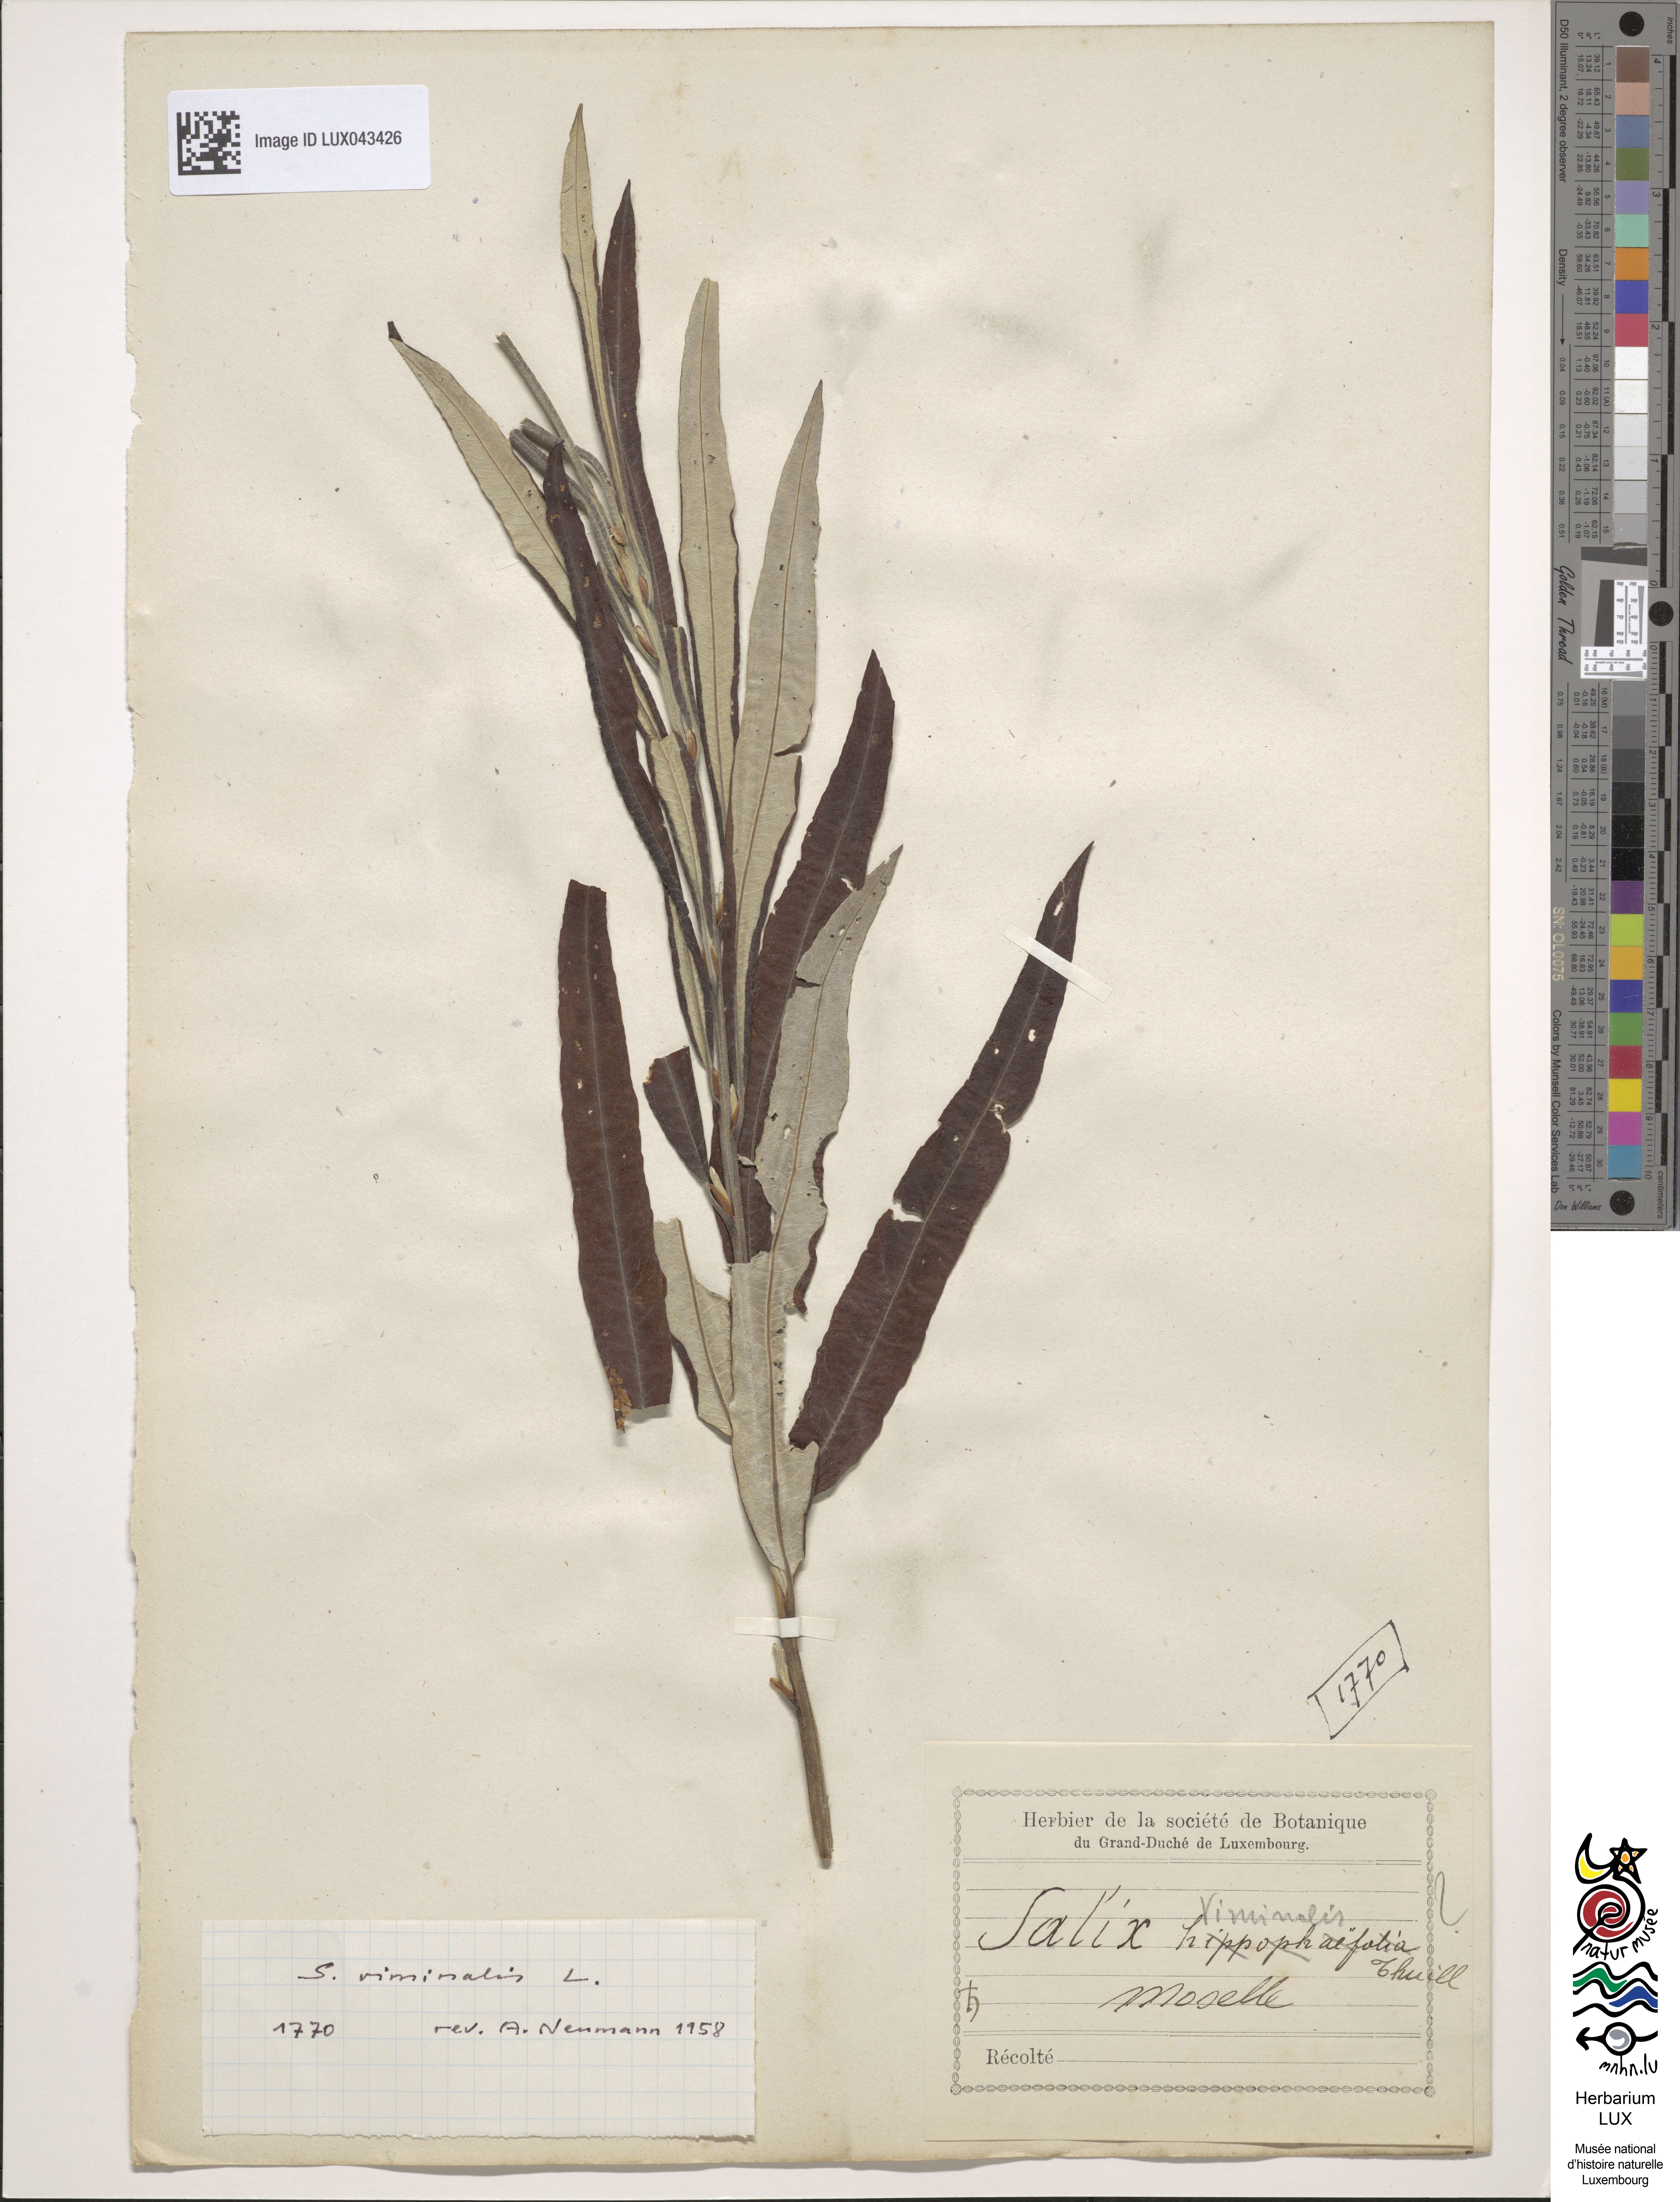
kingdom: Plantae
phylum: Tracheophyta
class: Magnoliopsida
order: Malpighiales
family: Salicaceae
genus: Salix
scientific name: Salix viminalis
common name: Osier
